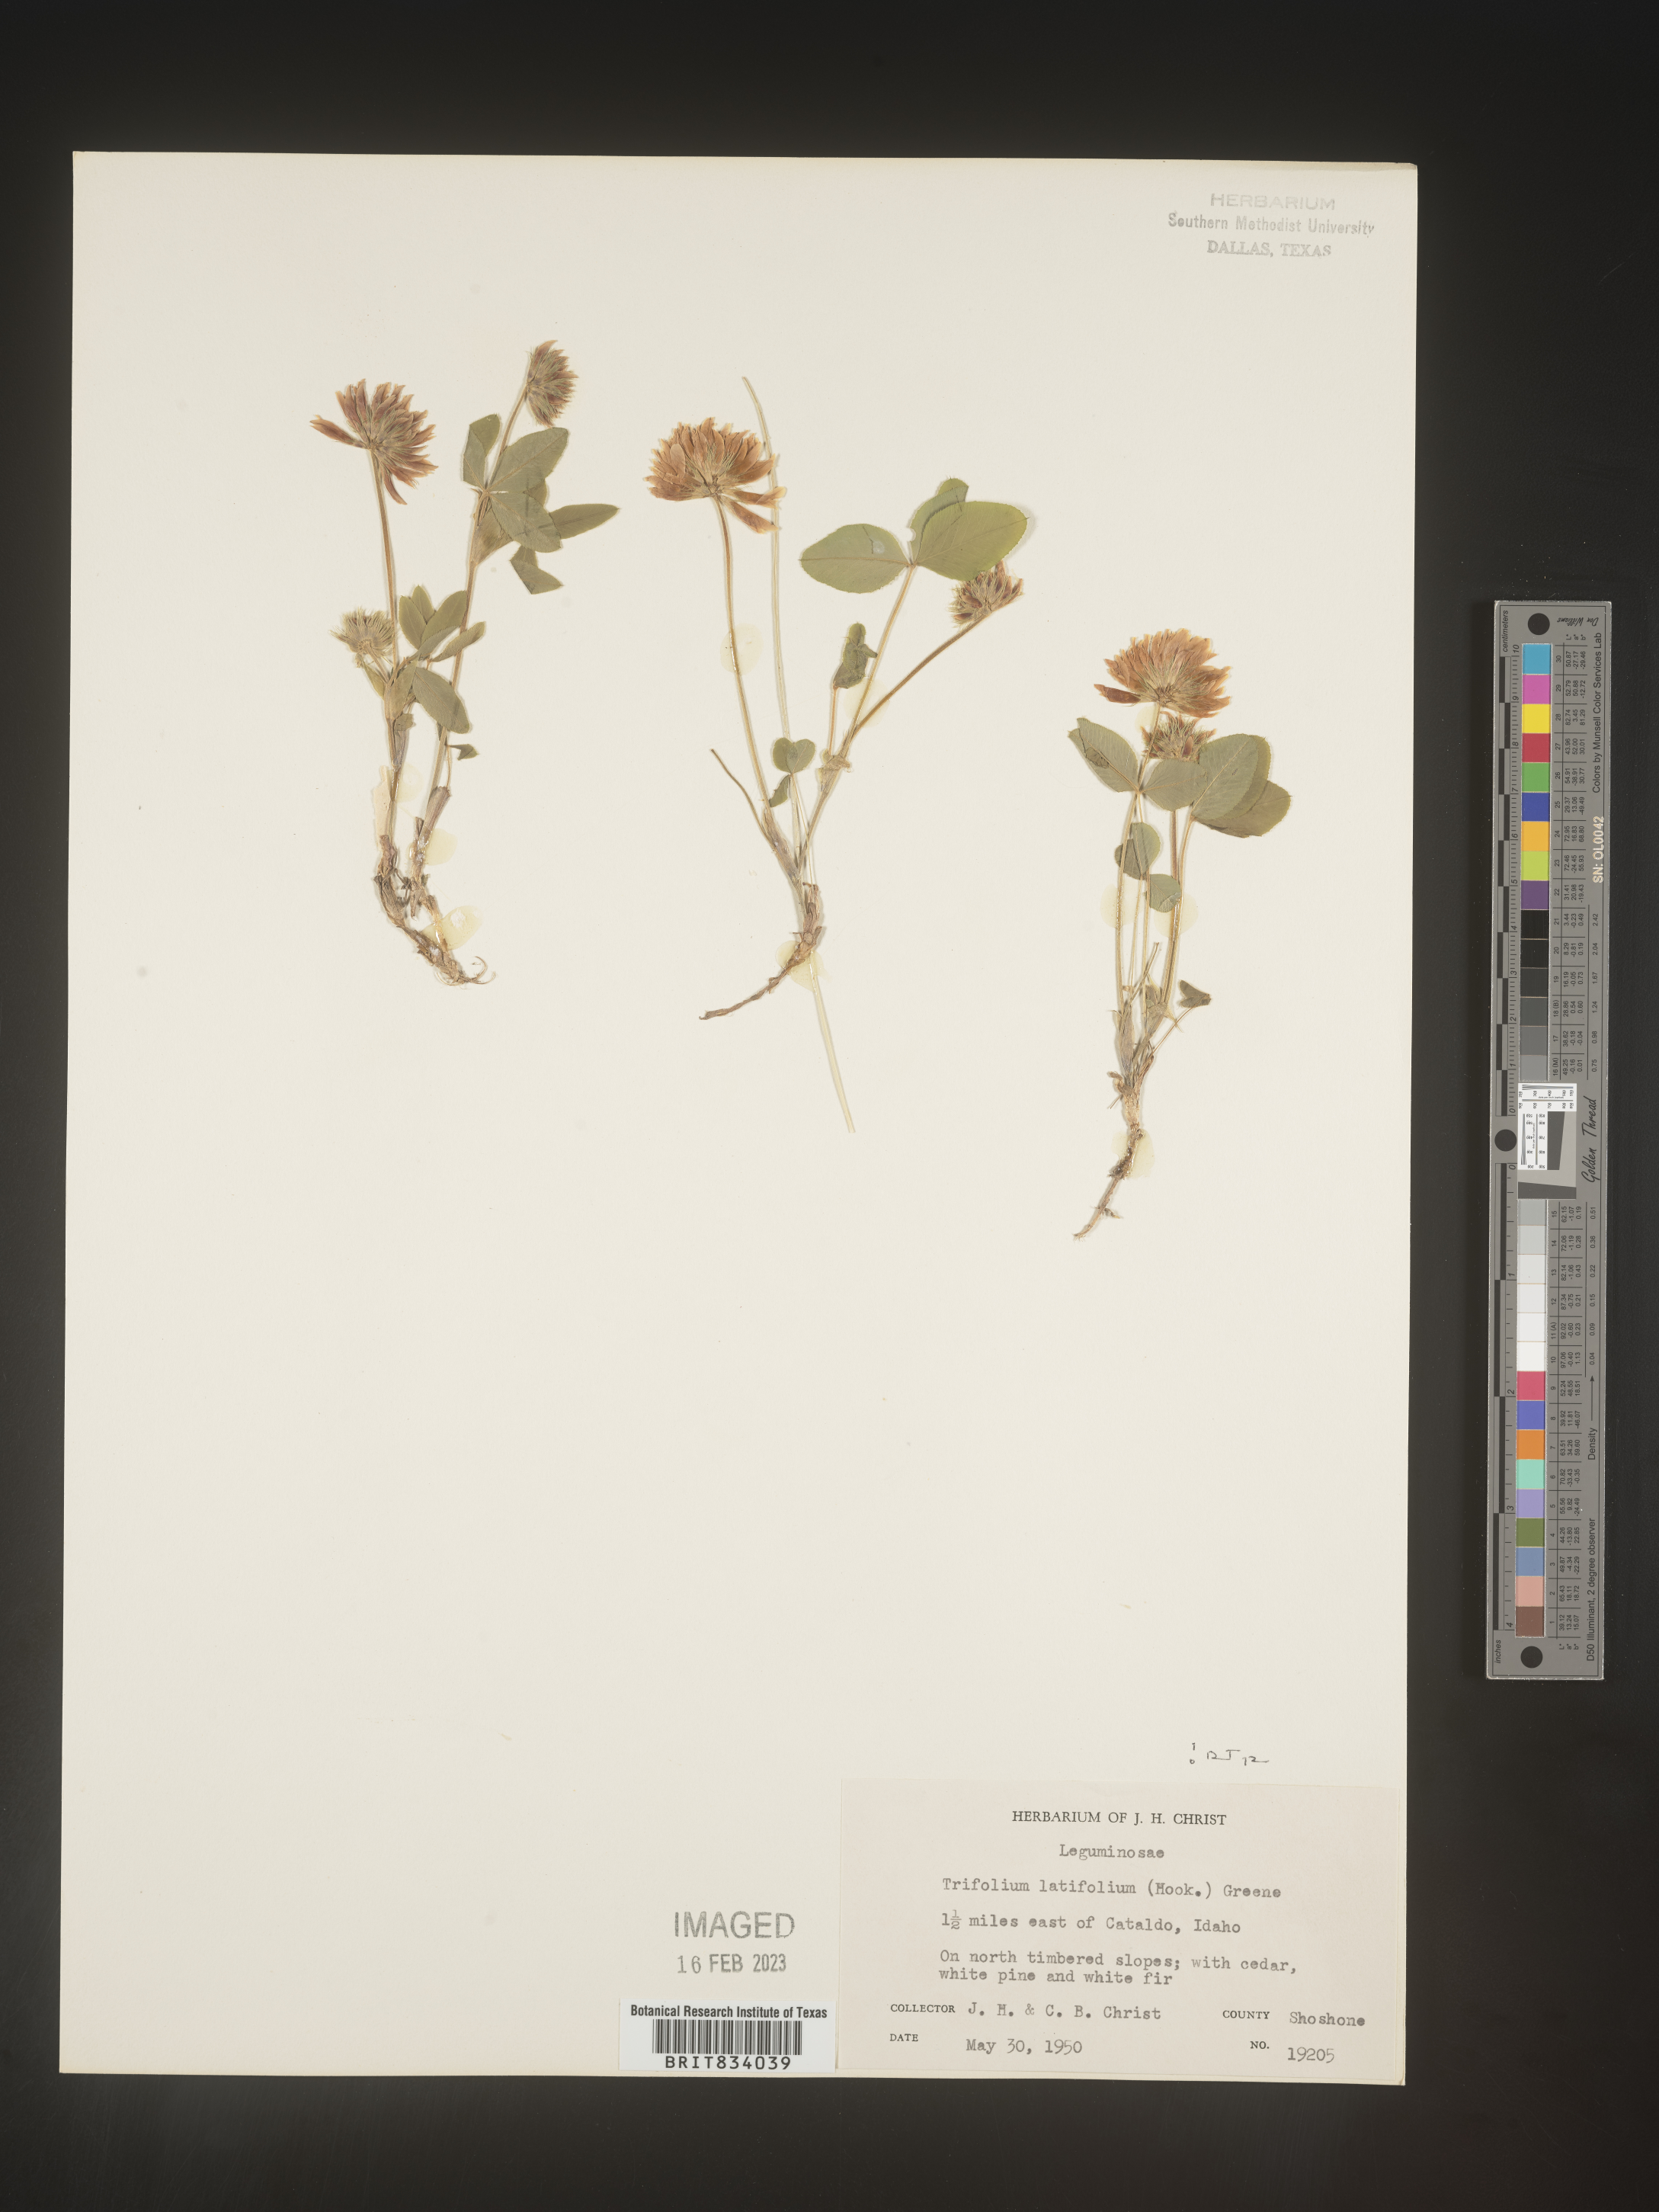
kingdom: Plantae
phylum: Tracheophyta
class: Magnoliopsida
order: Fabales
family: Fabaceae
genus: Trifolium
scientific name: Trifolium
